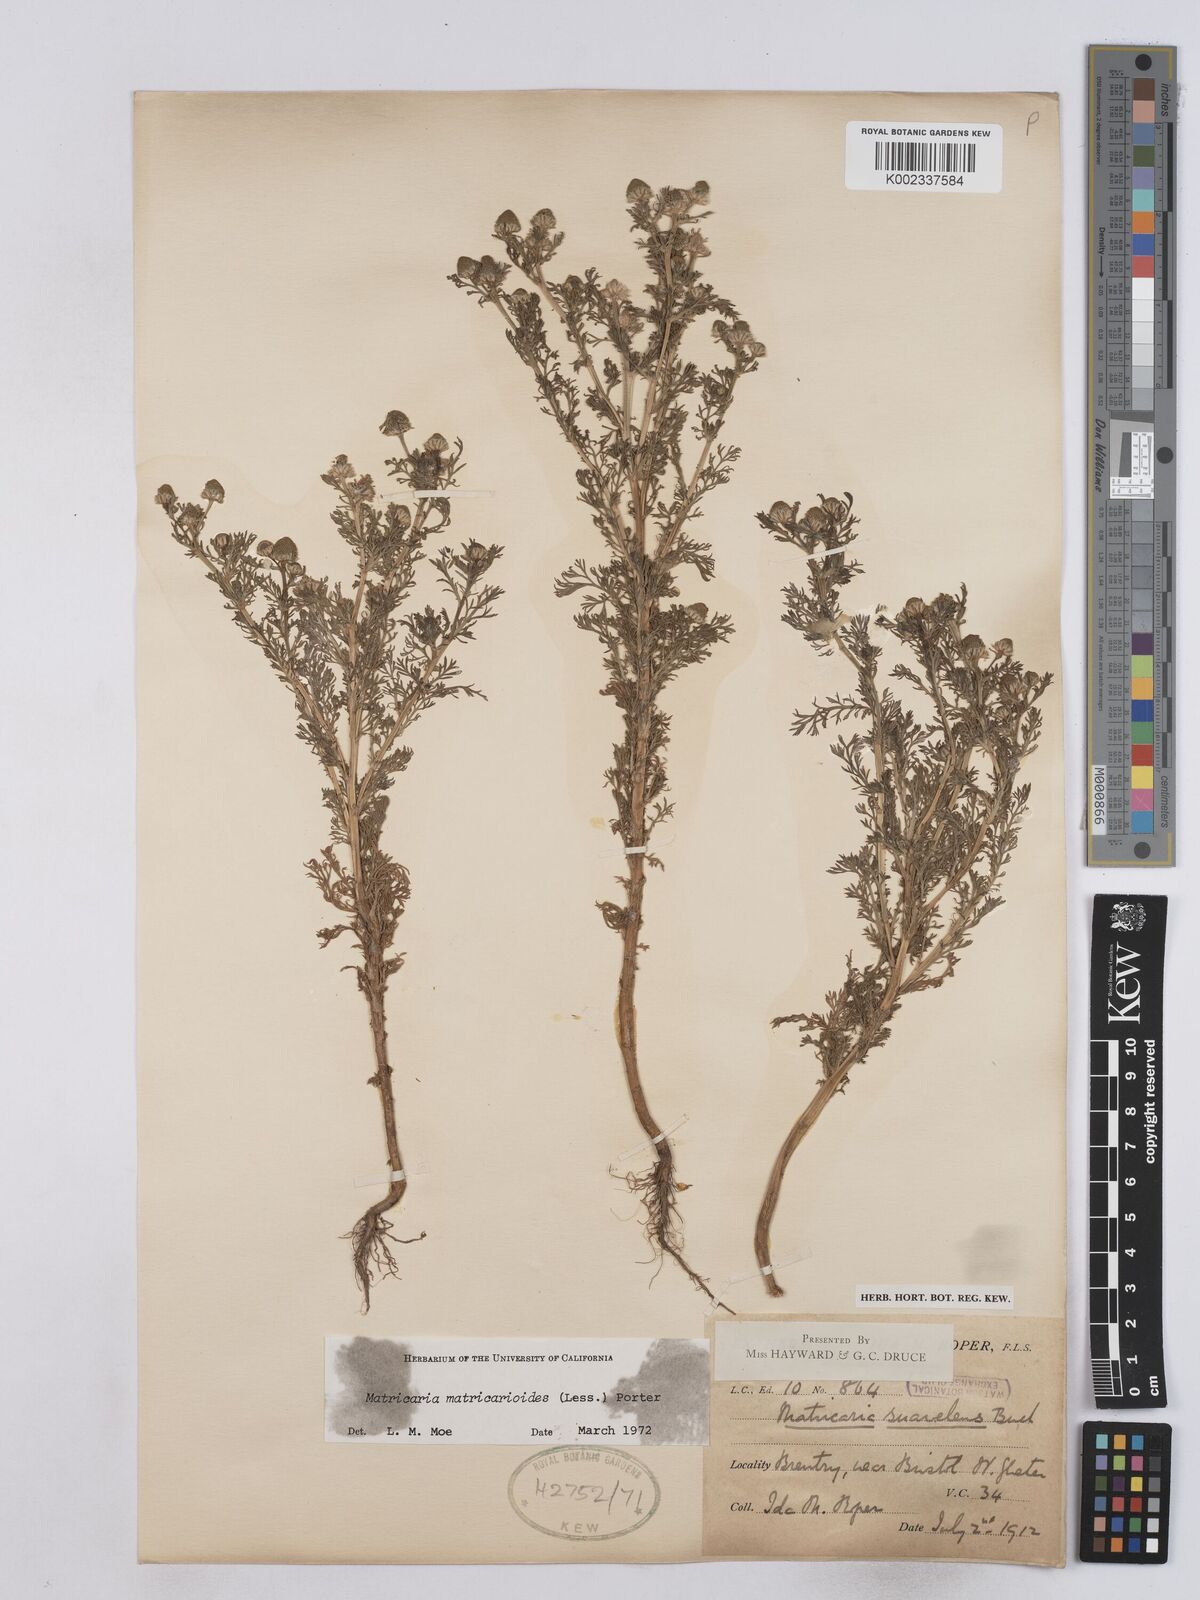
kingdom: Plantae
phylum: Tracheophyta
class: Magnoliopsida
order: Asterales
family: Asteraceae
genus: Matricaria
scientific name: Matricaria discoidea
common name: Disc mayweed
